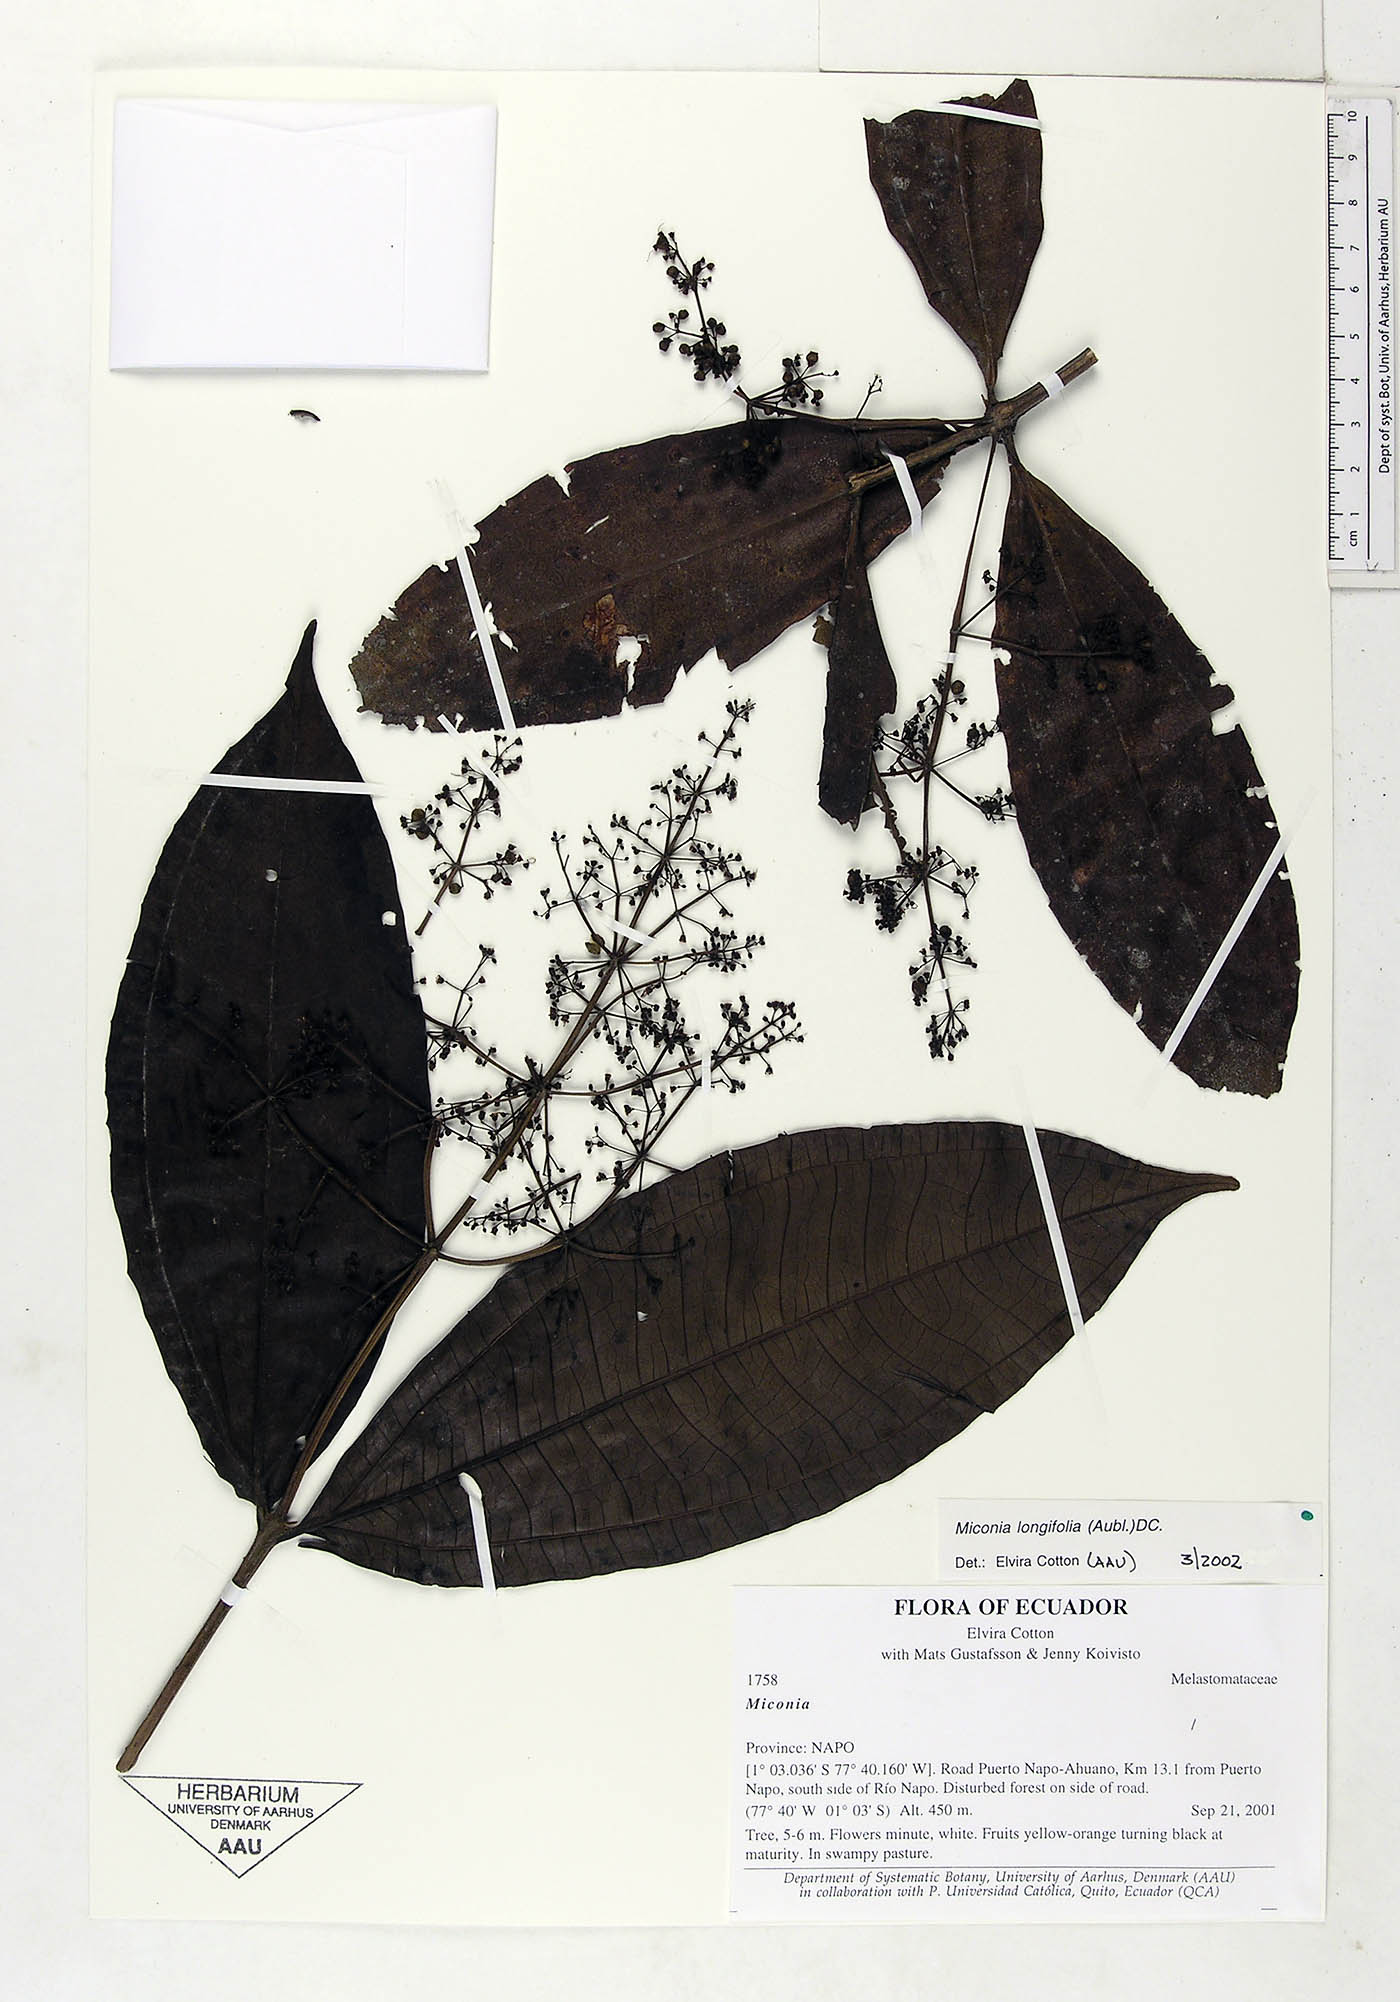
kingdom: Plantae
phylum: Tracheophyta
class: Magnoliopsida
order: Myrtales
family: Melastomataceae
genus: Miconia
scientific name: Miconia longifolia
